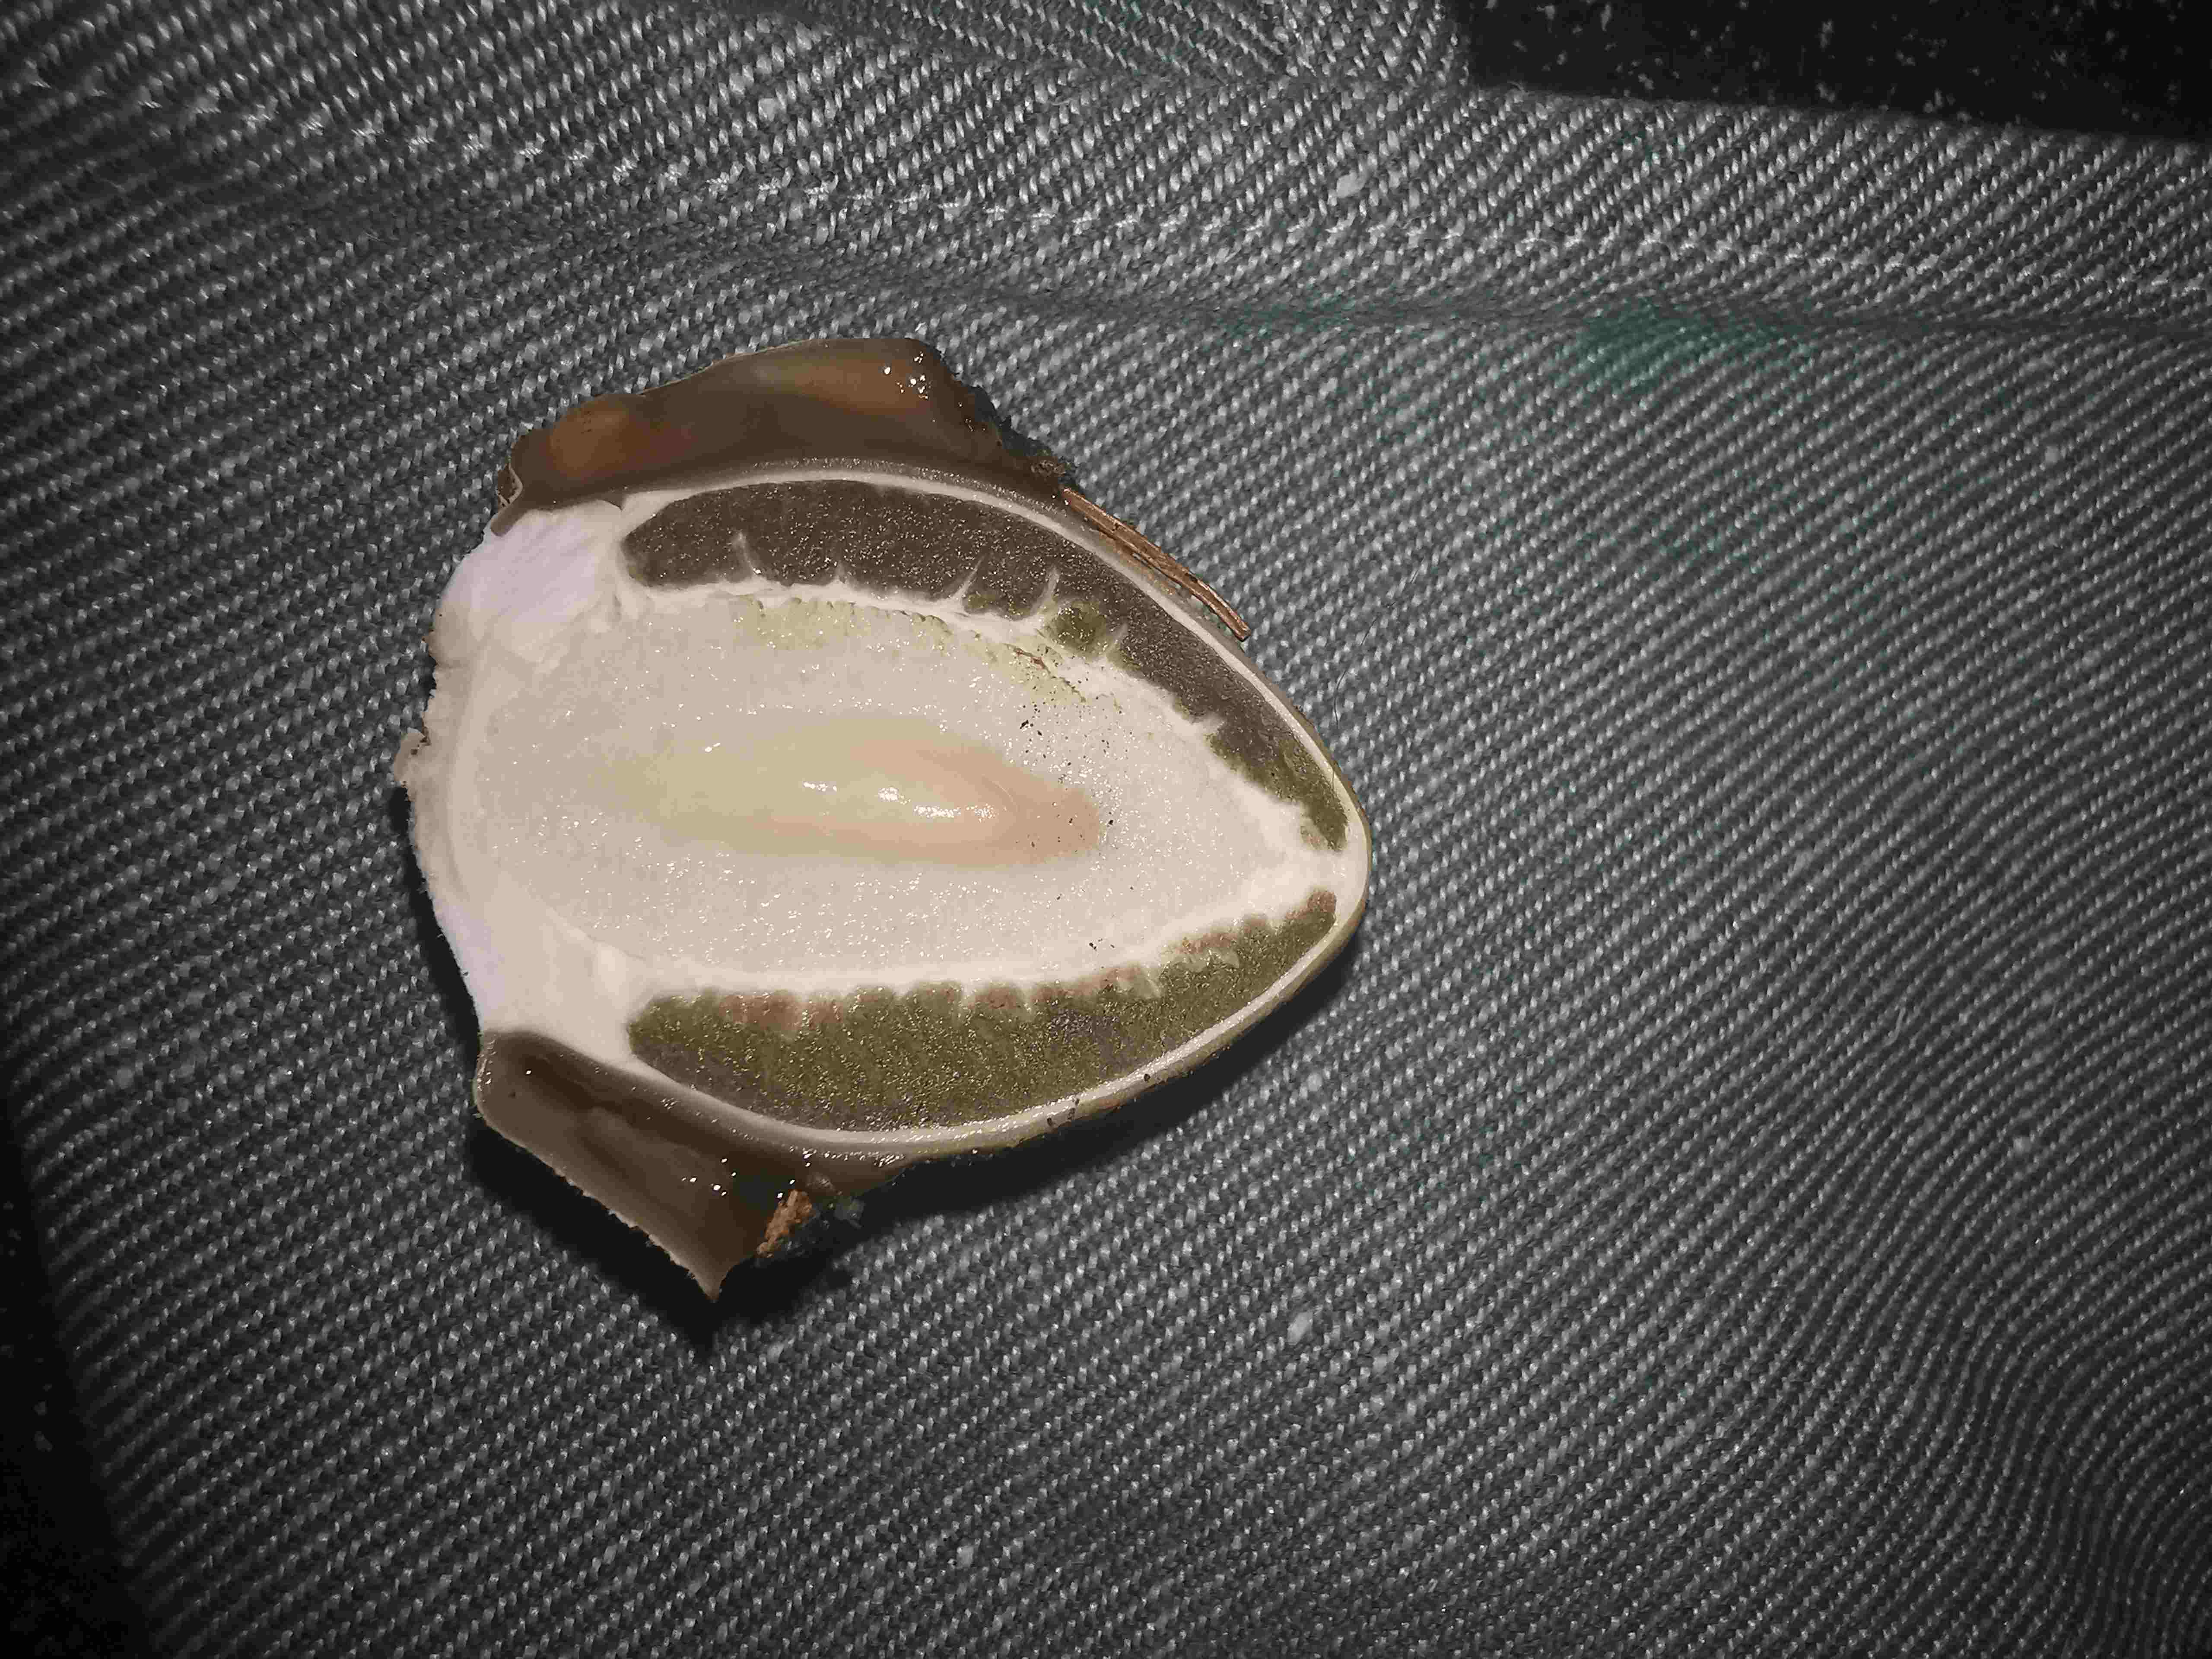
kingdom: Fungi
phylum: Basidiomycota
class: Agaricomycetes
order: Phallales
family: Phallaceae
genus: Phallus
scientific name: Phallus impudicus
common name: almindelig stinksvamp
